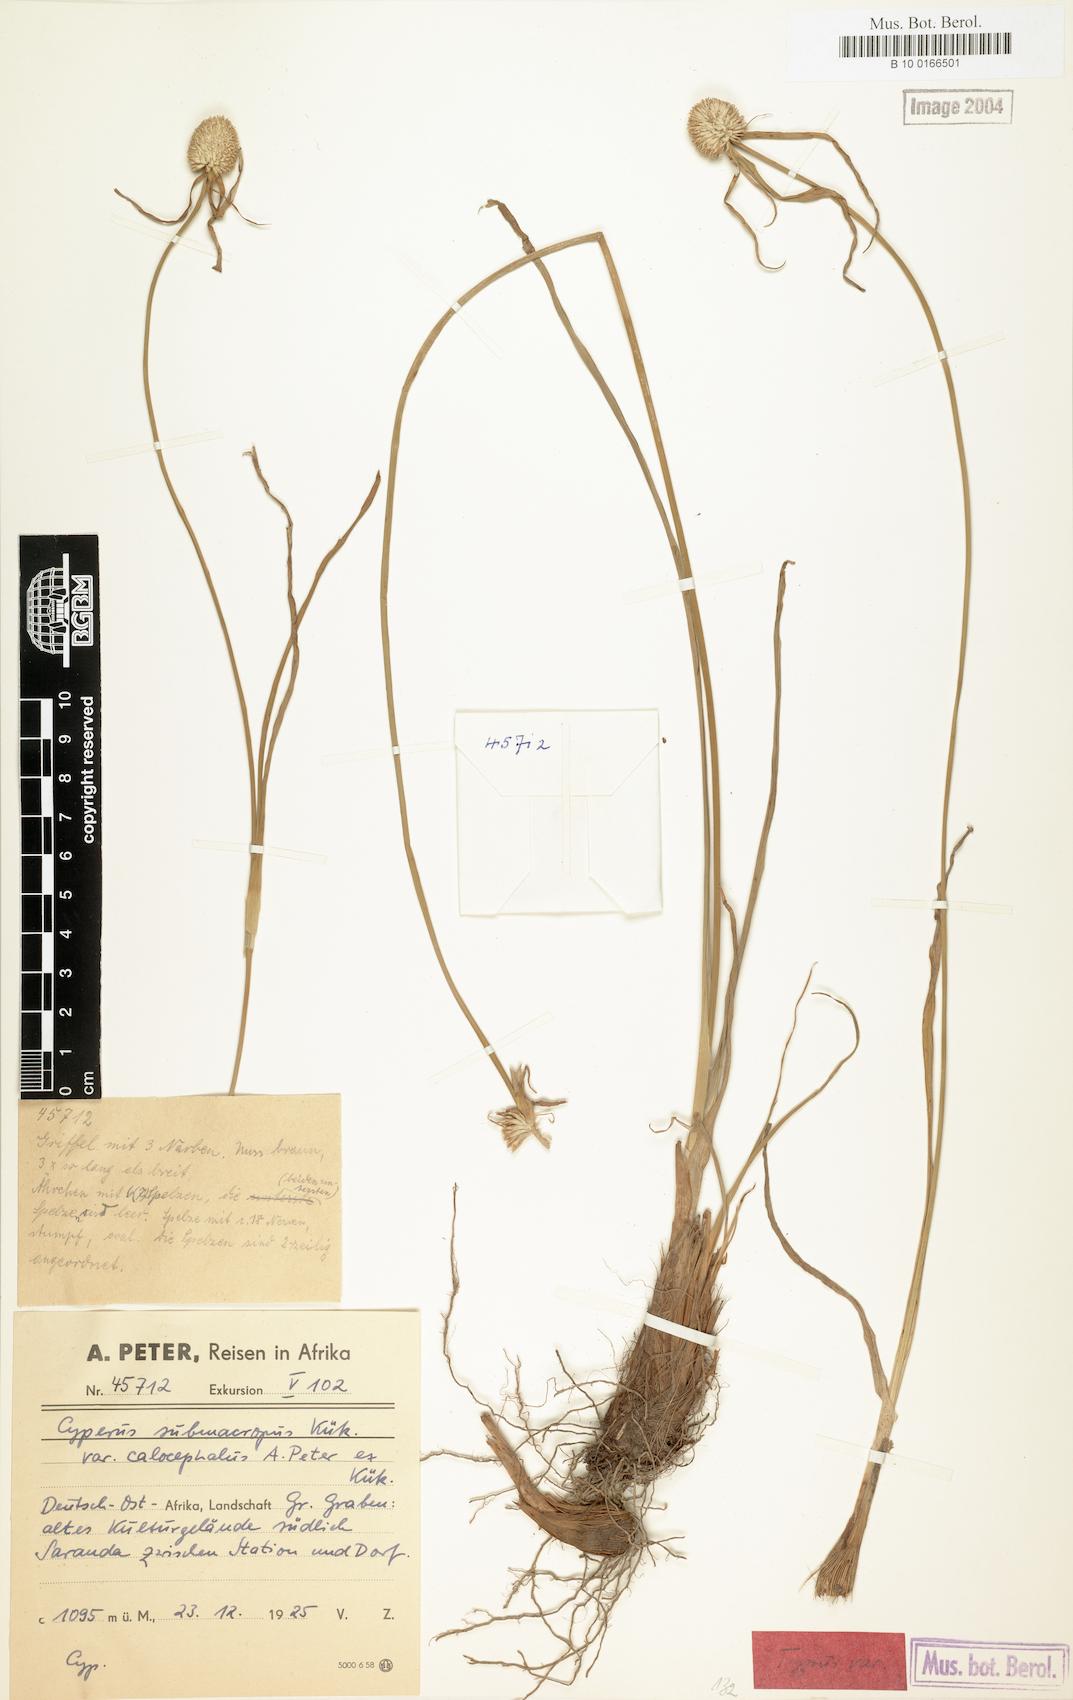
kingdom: Plantae
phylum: Tracheophyta
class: Liliopsida
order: Poales
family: Cyperaceae
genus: Cyperus
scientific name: Cyperus mollipes
